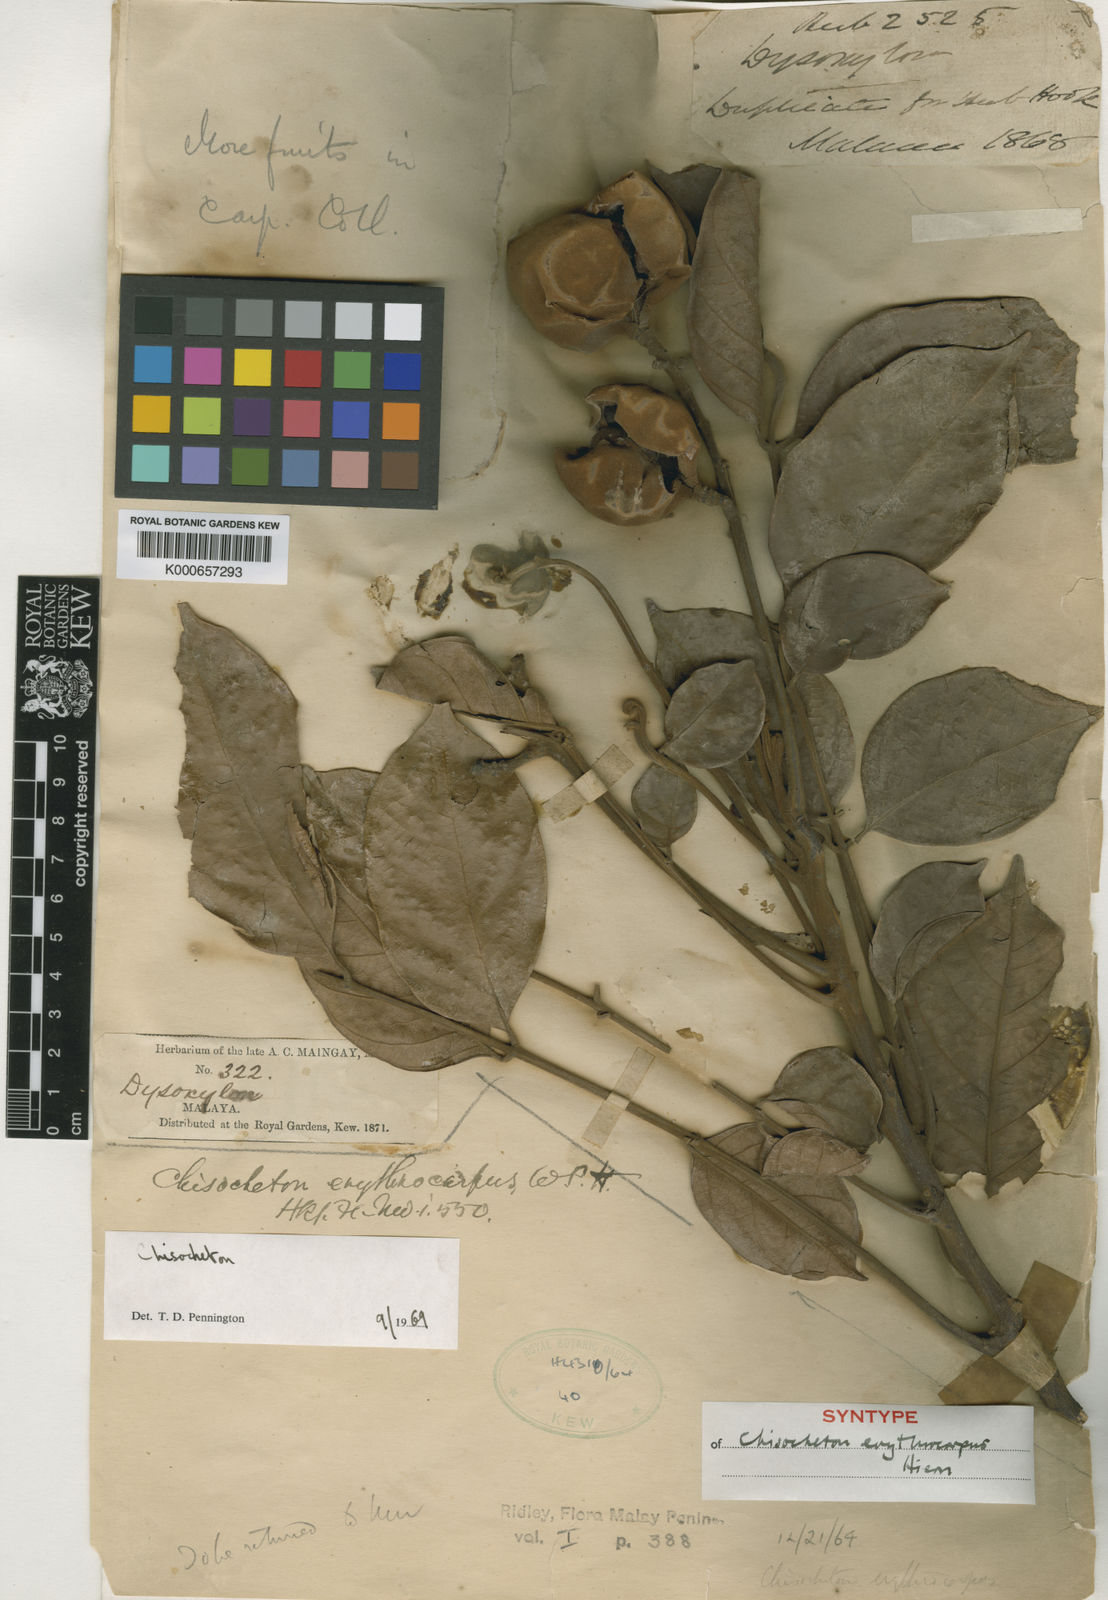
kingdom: Plantae
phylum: Tracheophyta
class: Magnoliopsida
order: Sapindales
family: Meliaceae
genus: Chisocheton
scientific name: Chisocheton erythrocarpus
